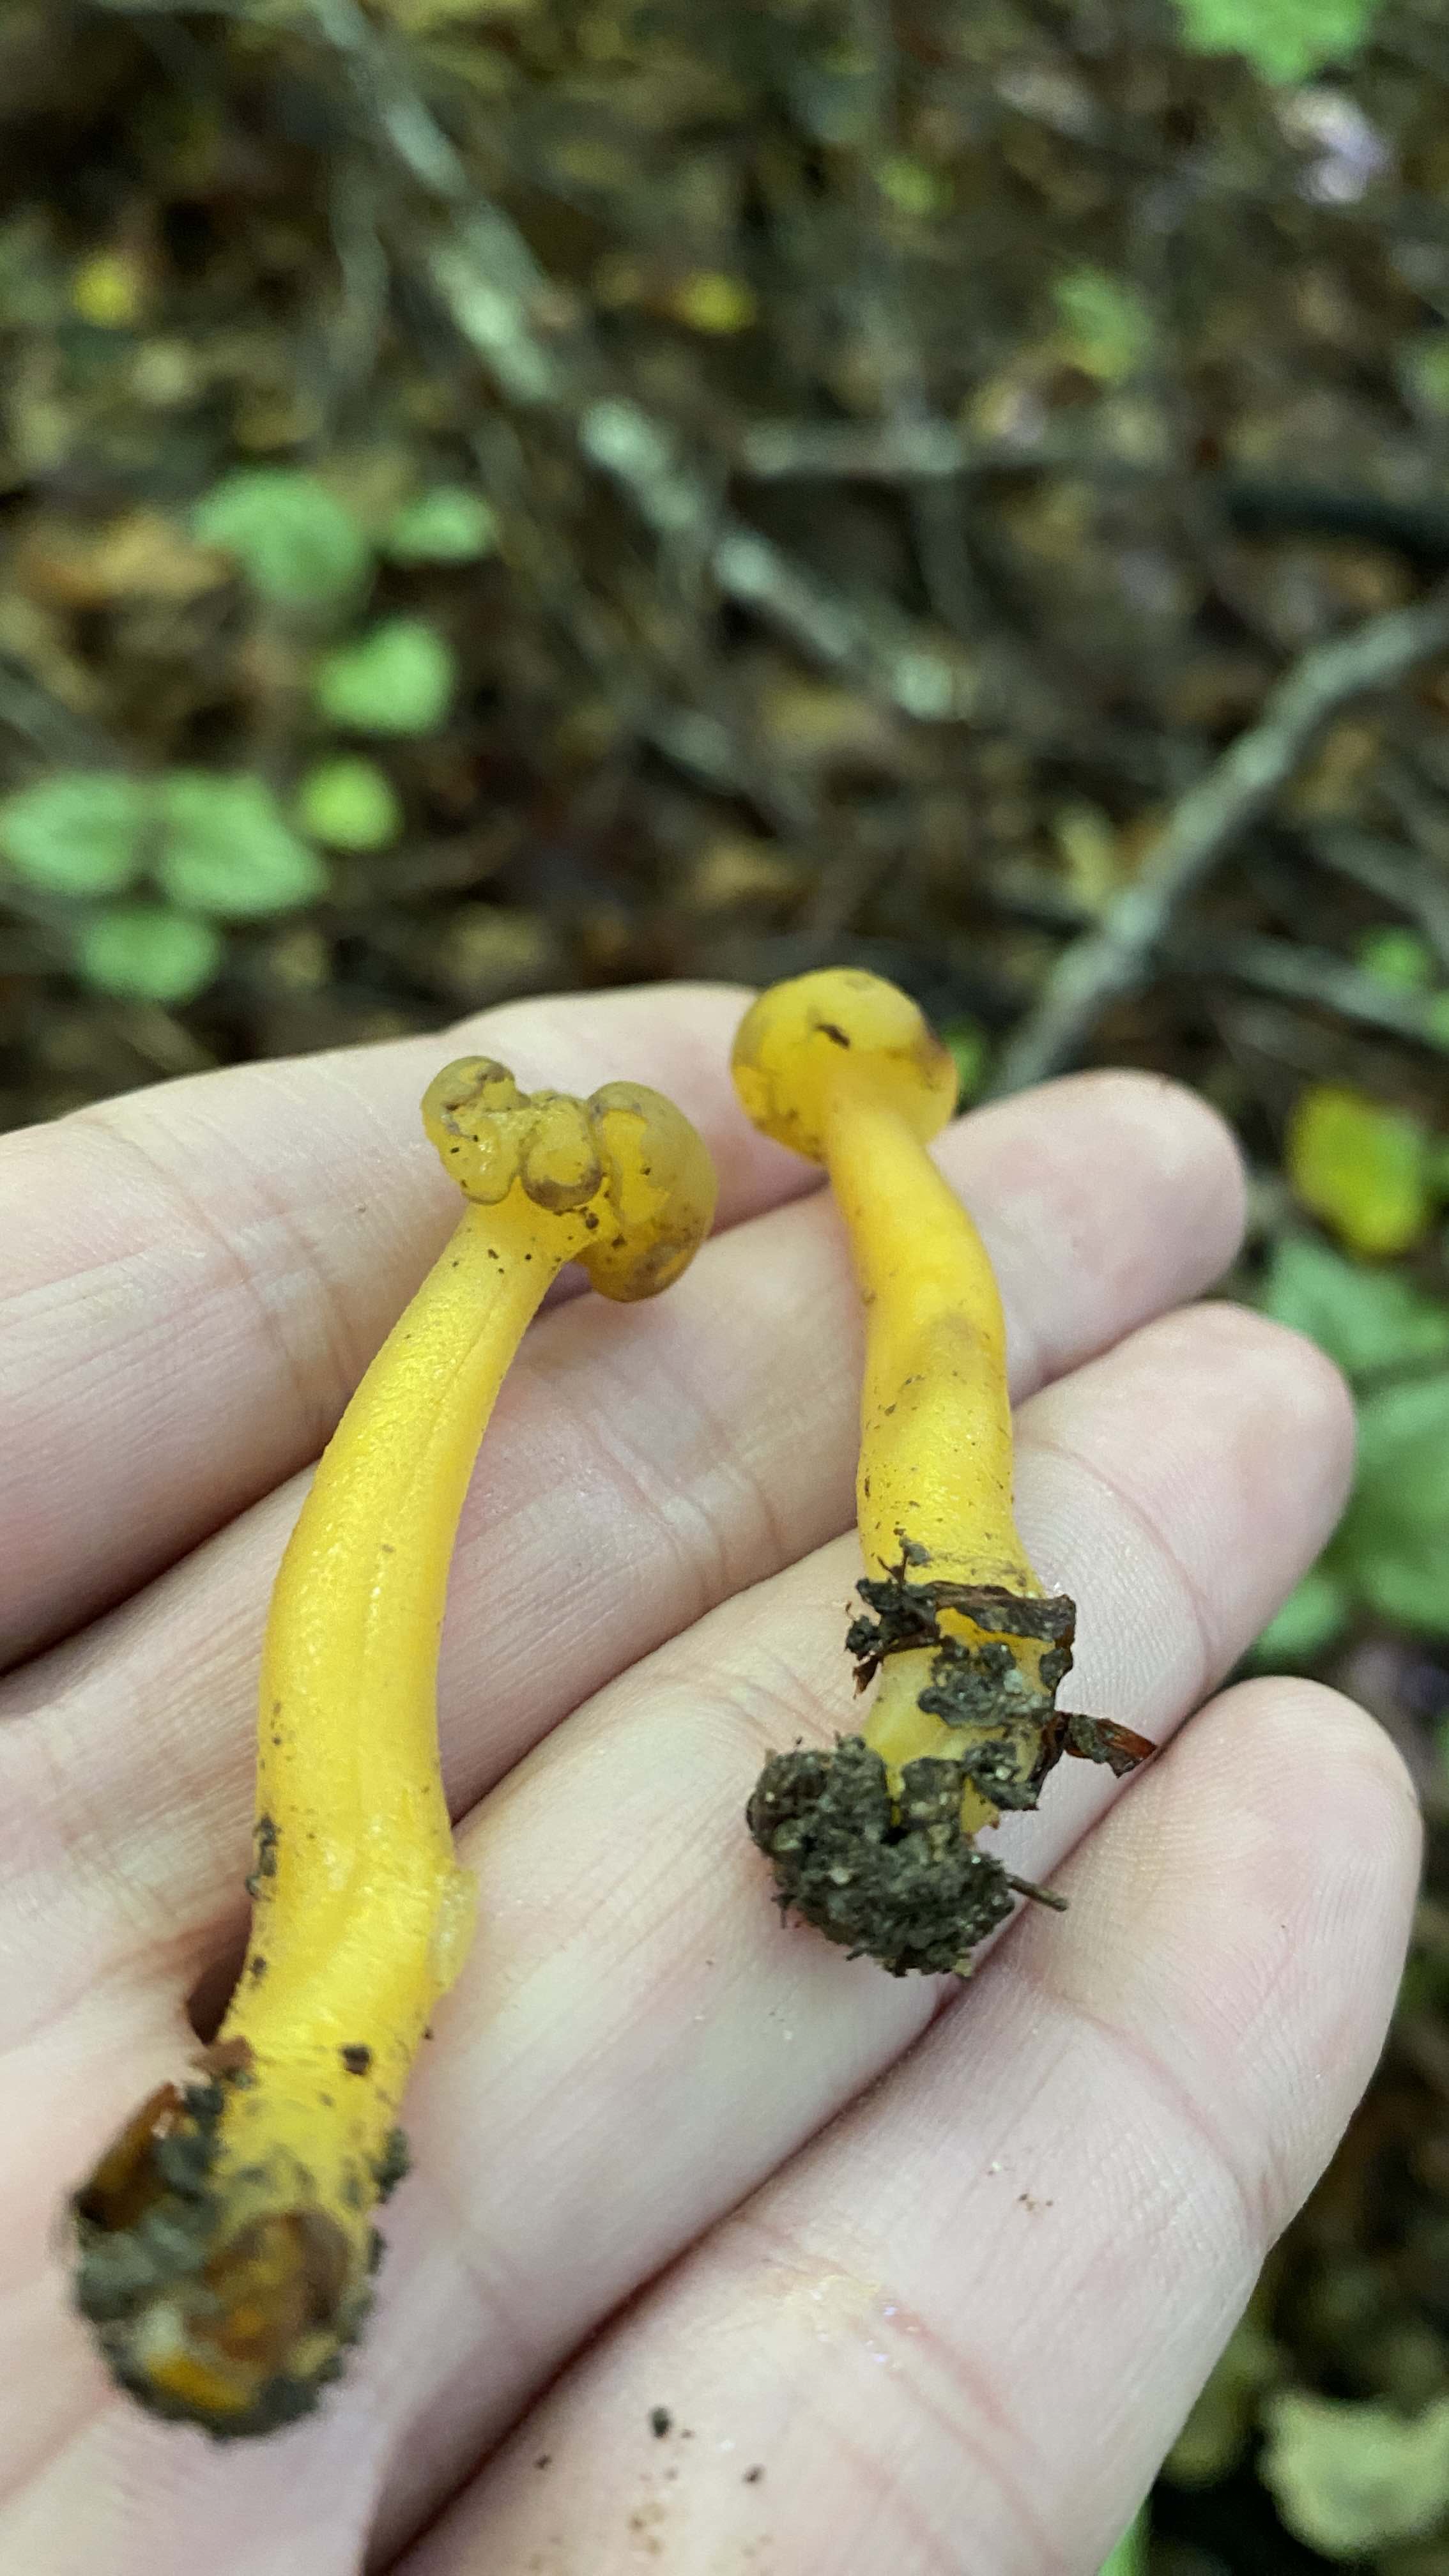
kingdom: Fungi
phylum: Ascomycota
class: Leotiomycetes
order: Leotiales
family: Leotiaceae
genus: Leotia
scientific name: Leotia lubrica
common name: ravsvamp
